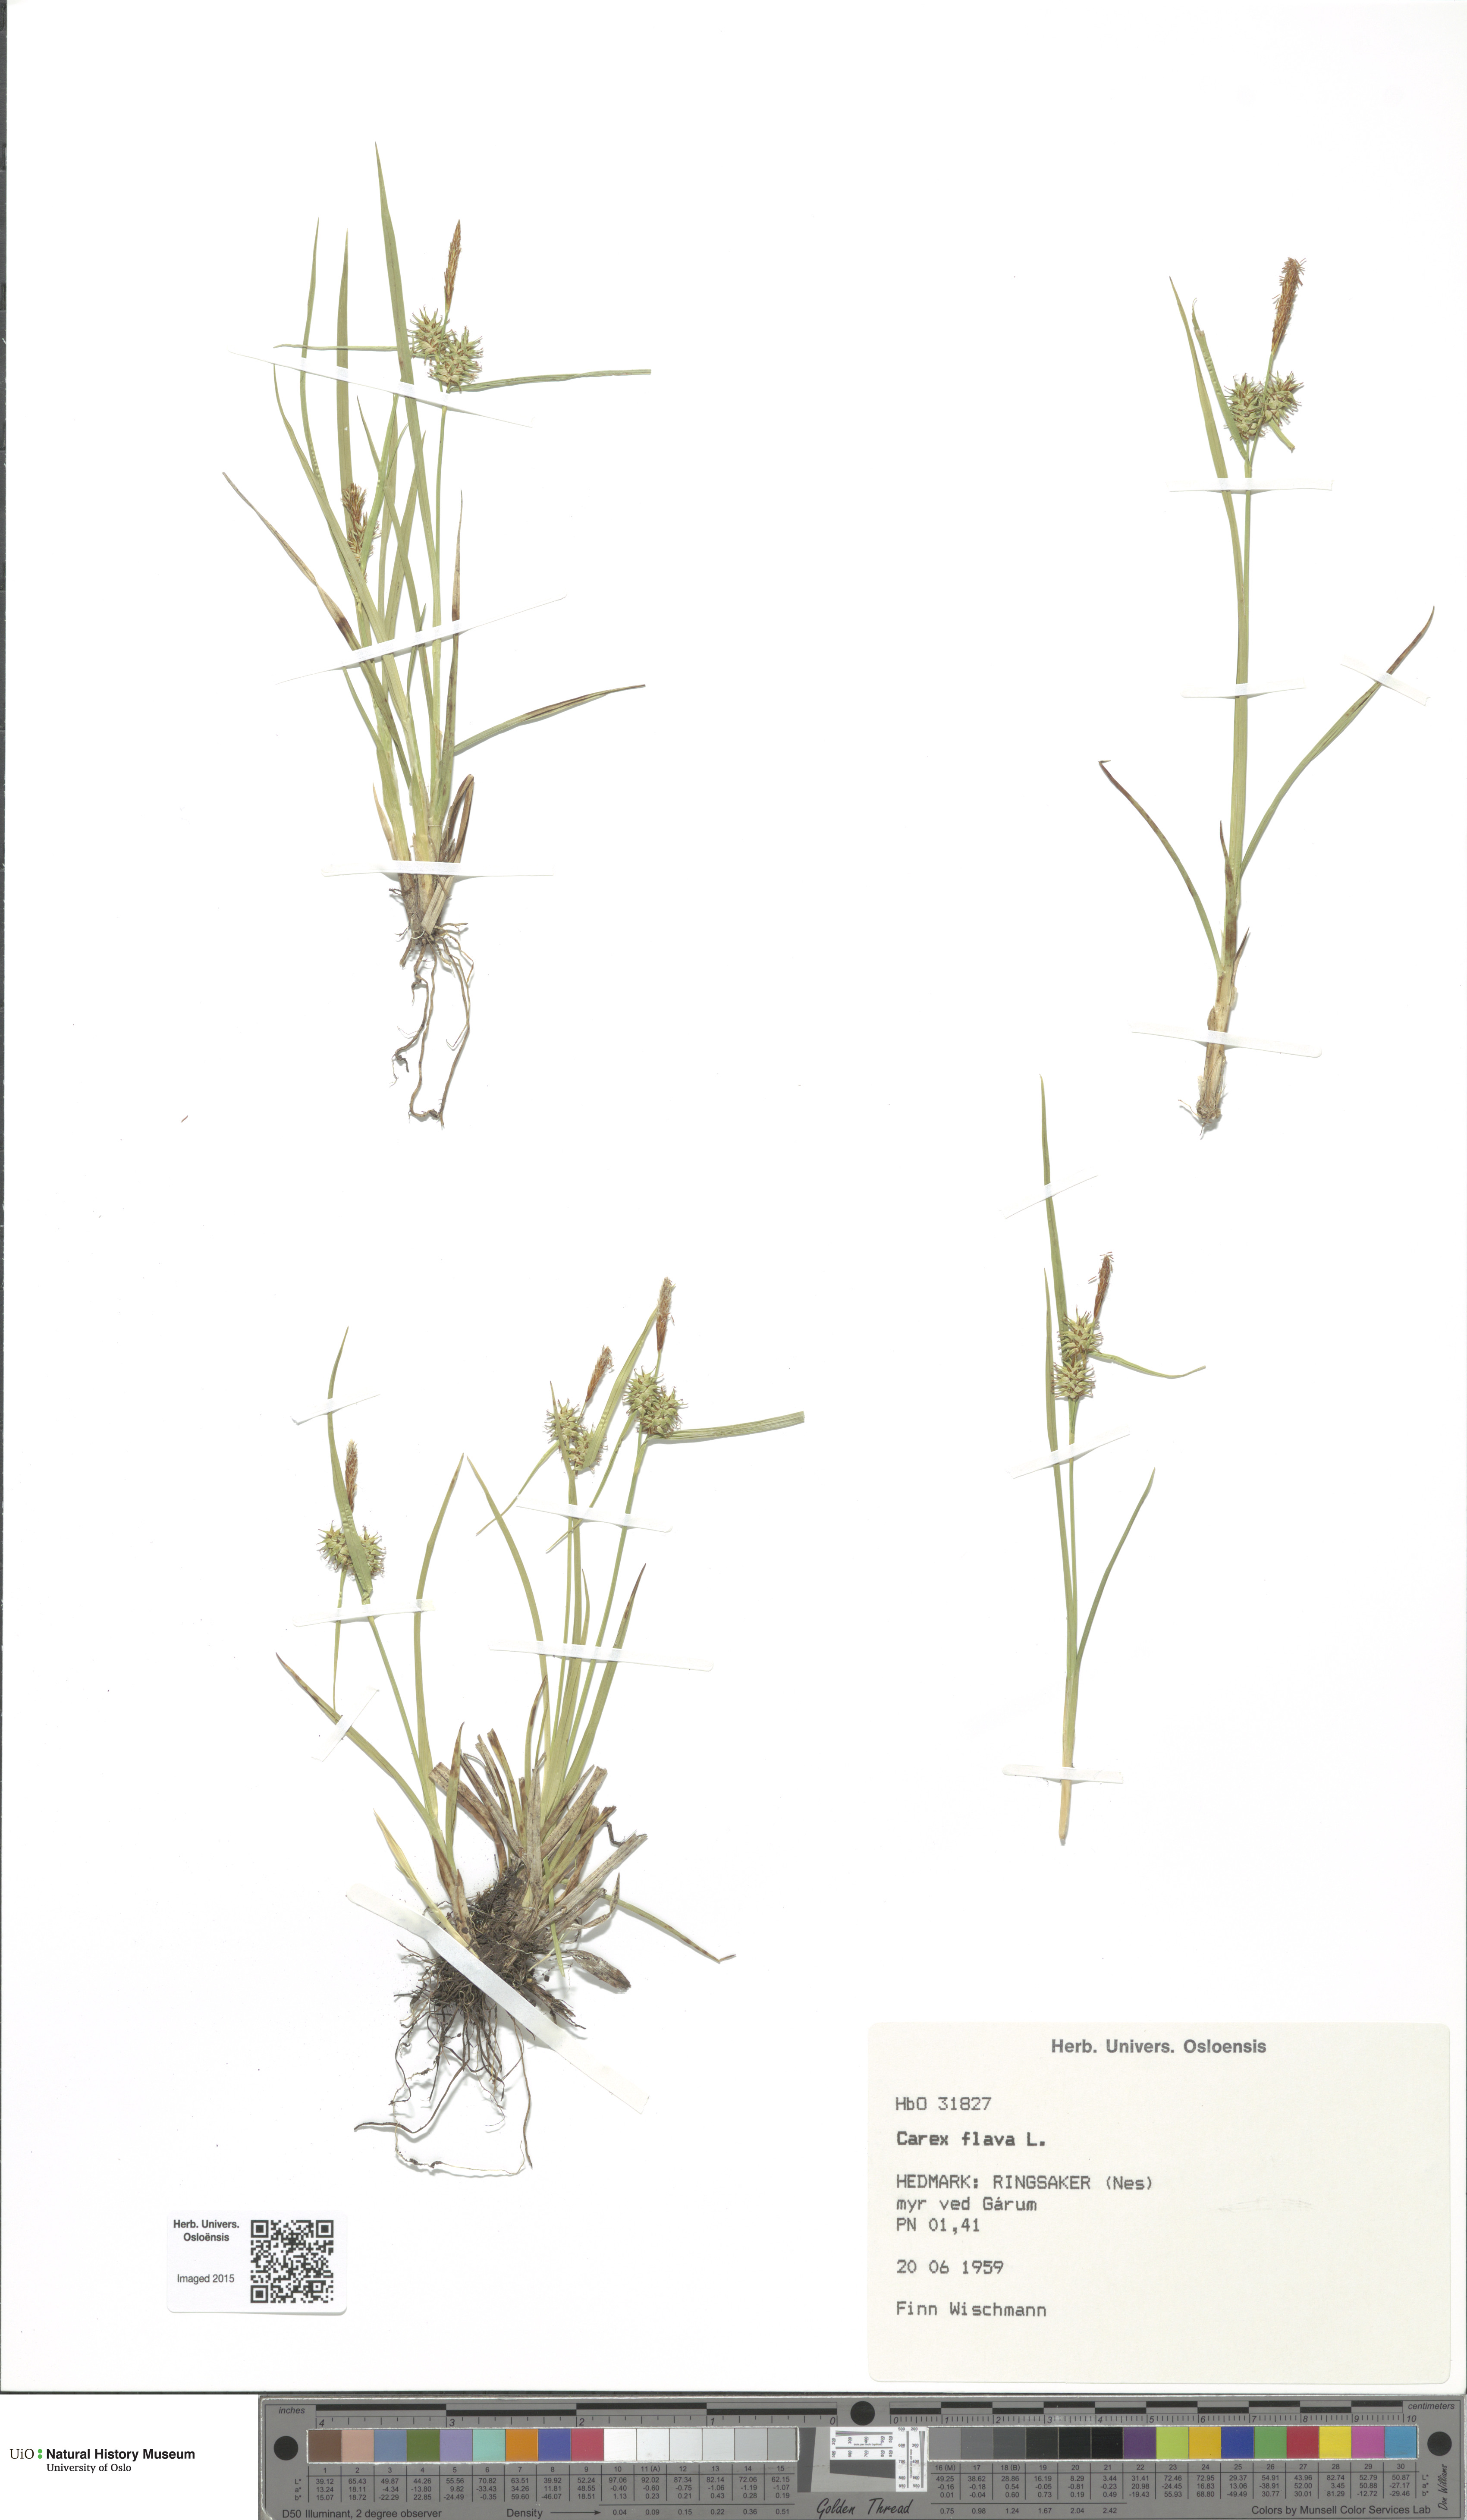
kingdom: Plantae
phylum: Tracheophyta
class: Liliopsida
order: Poales
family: Cyperaceae
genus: Carex
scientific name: Carex flava
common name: Large yellow-sedge
